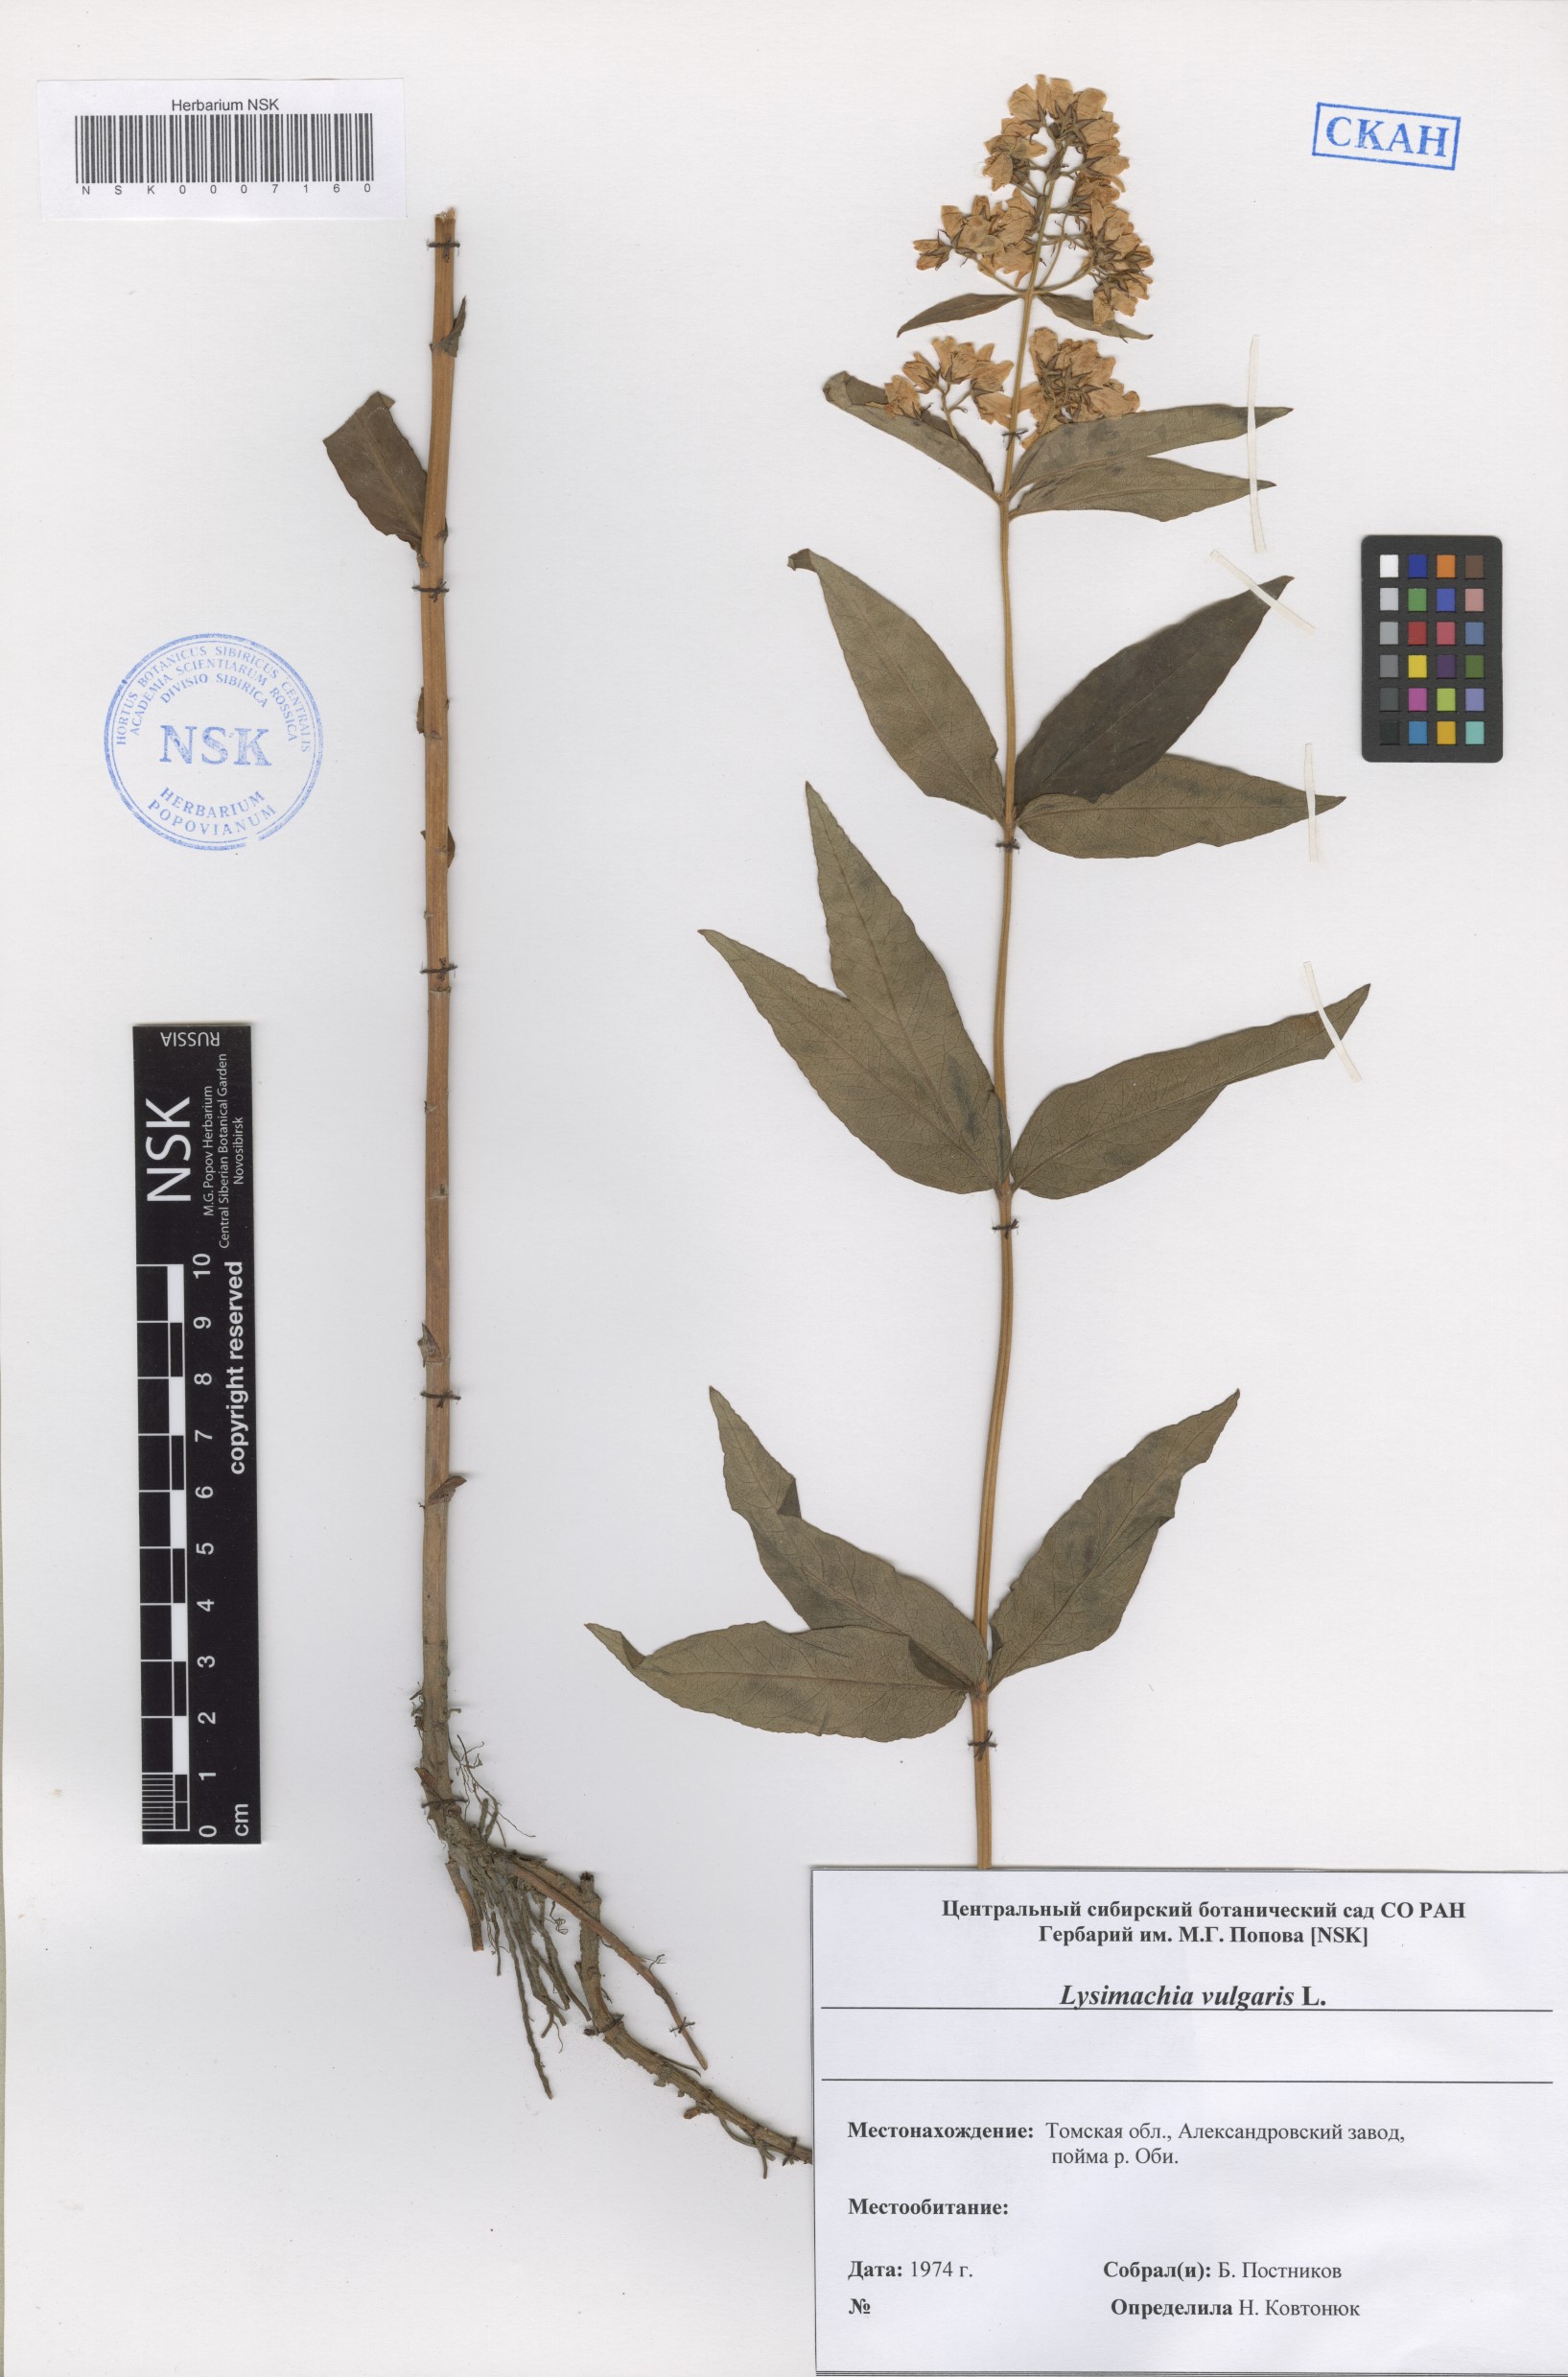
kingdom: Plantae
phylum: Tracheophyta
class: Magnoliopsida
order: Ericales
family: Primulaceae
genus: Lysimachia
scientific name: Lysimachia vulgaris
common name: Yellow loosestrife
